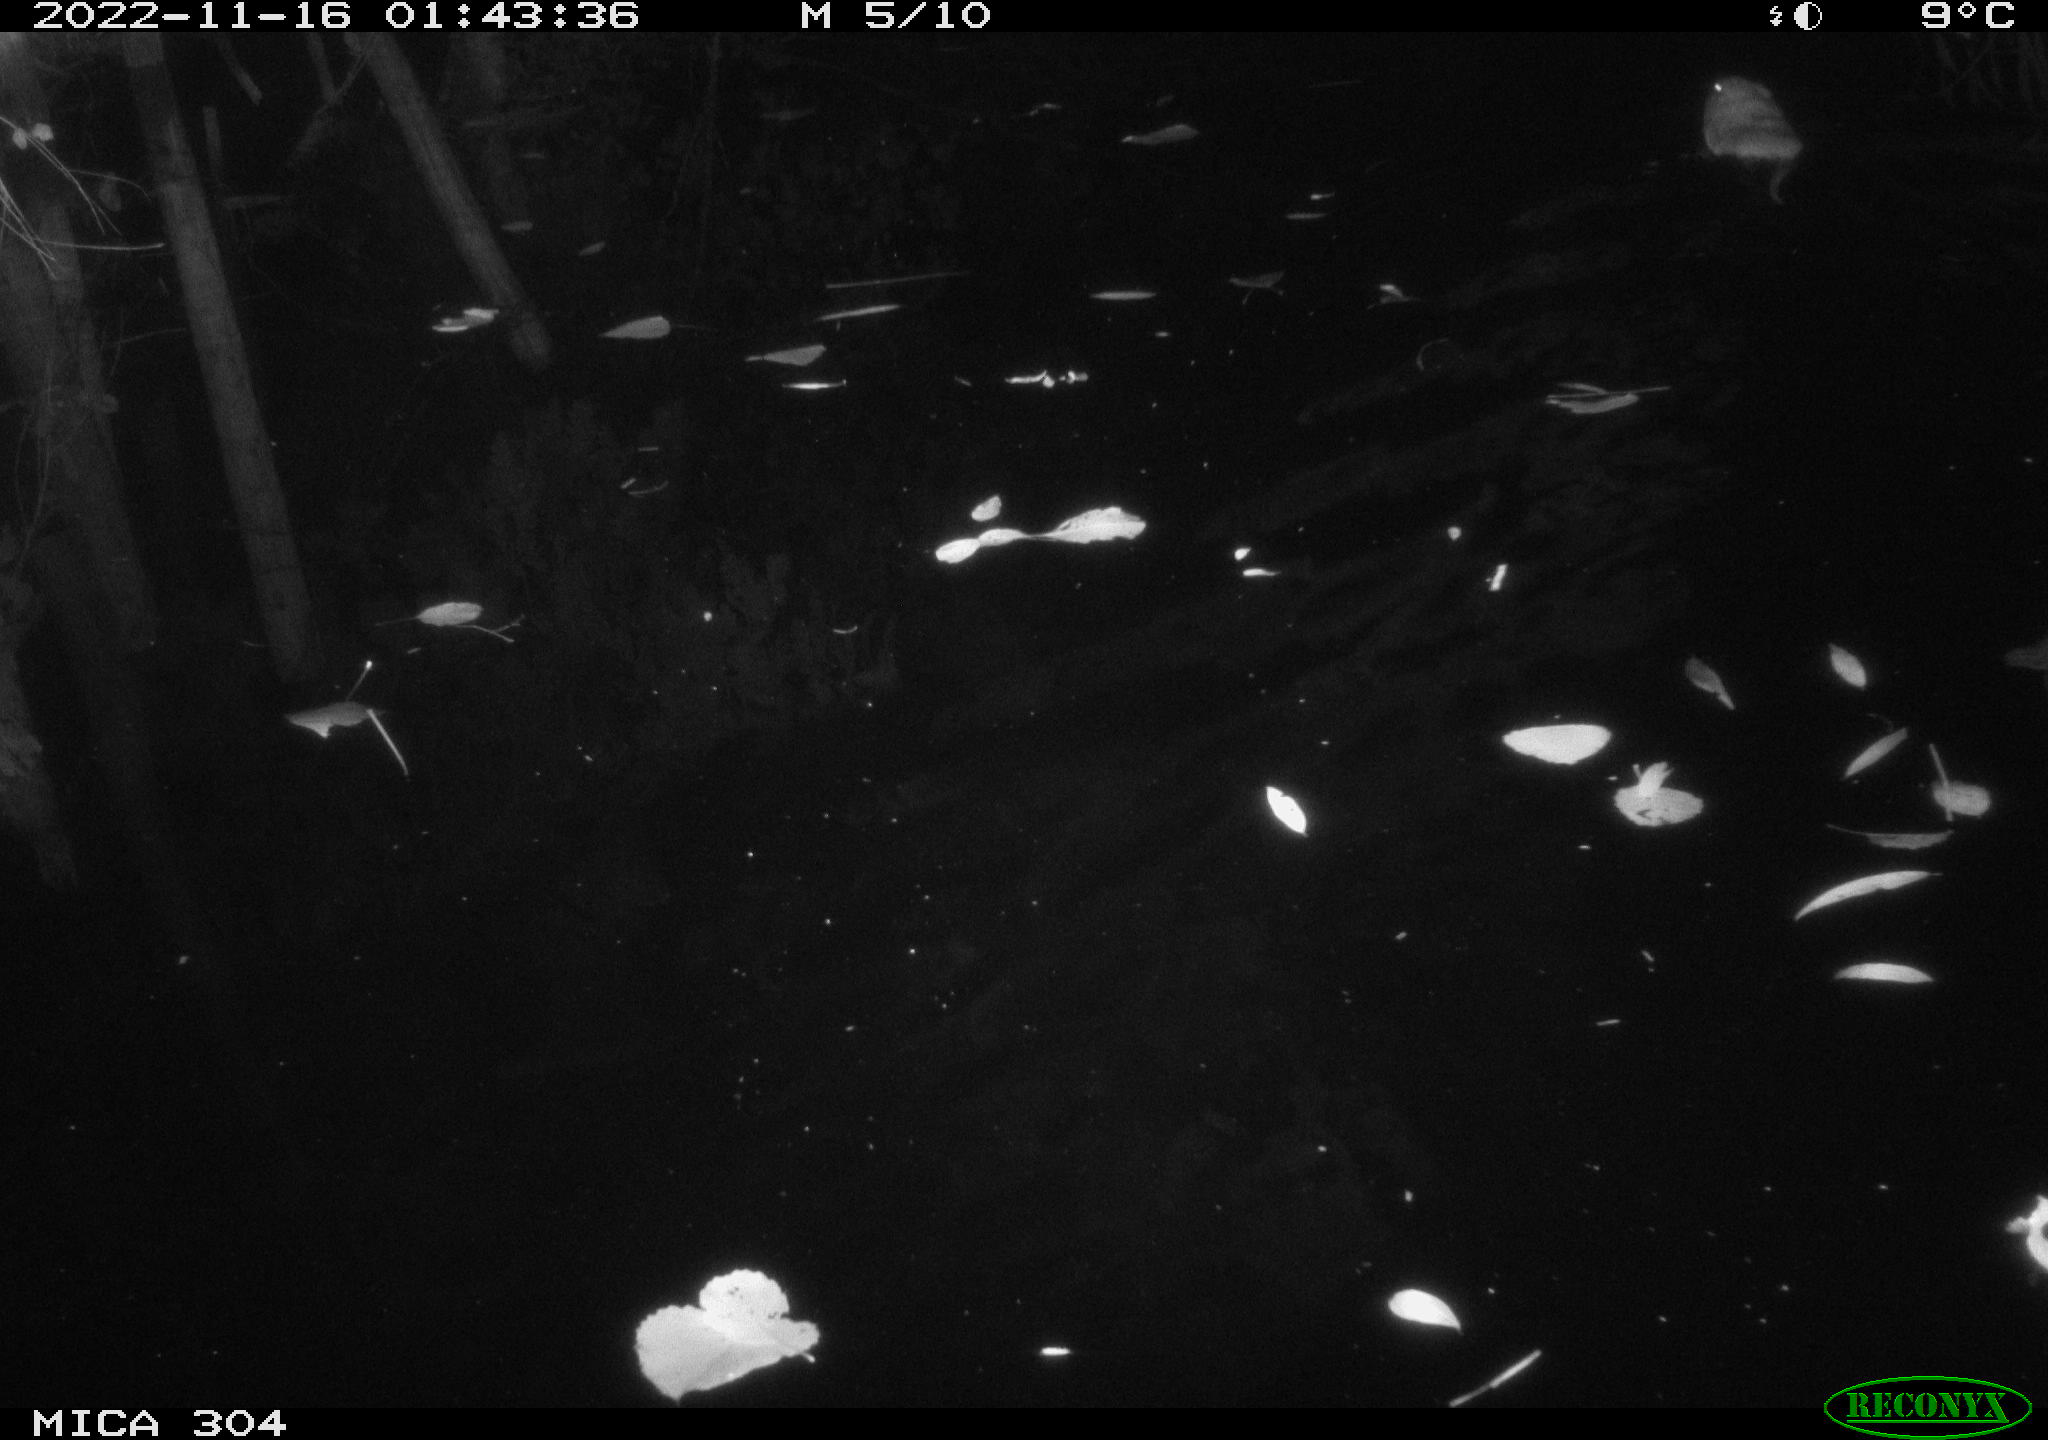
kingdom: Animalia
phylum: Chordata
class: Mammalia
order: Rodentia
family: Cricetidae
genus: Ondatra
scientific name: Ondatra zibethicus
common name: Muskrat
